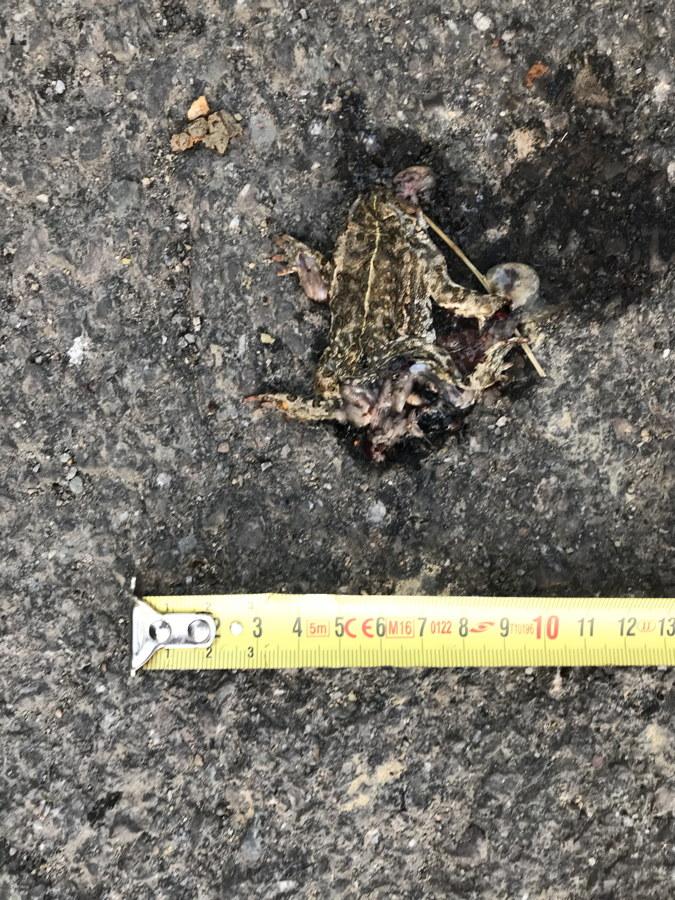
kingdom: Animalia
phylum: Chordata
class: Amphibia
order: Anura
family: Bufonidae
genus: Epidalea
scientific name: Epidalea calamita
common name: Natterjack toad
